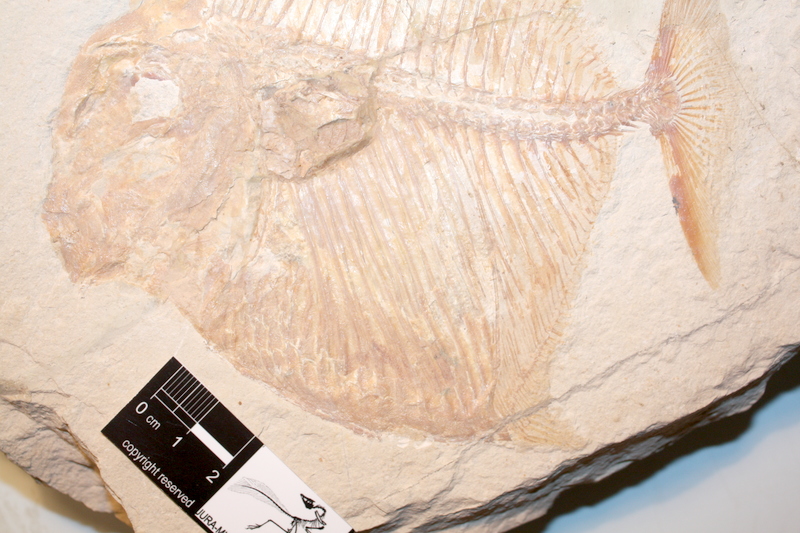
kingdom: Animalia
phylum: Chordata
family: Pycnodontes
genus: Palaeobalistum
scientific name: Palaeobalistum goedelii
